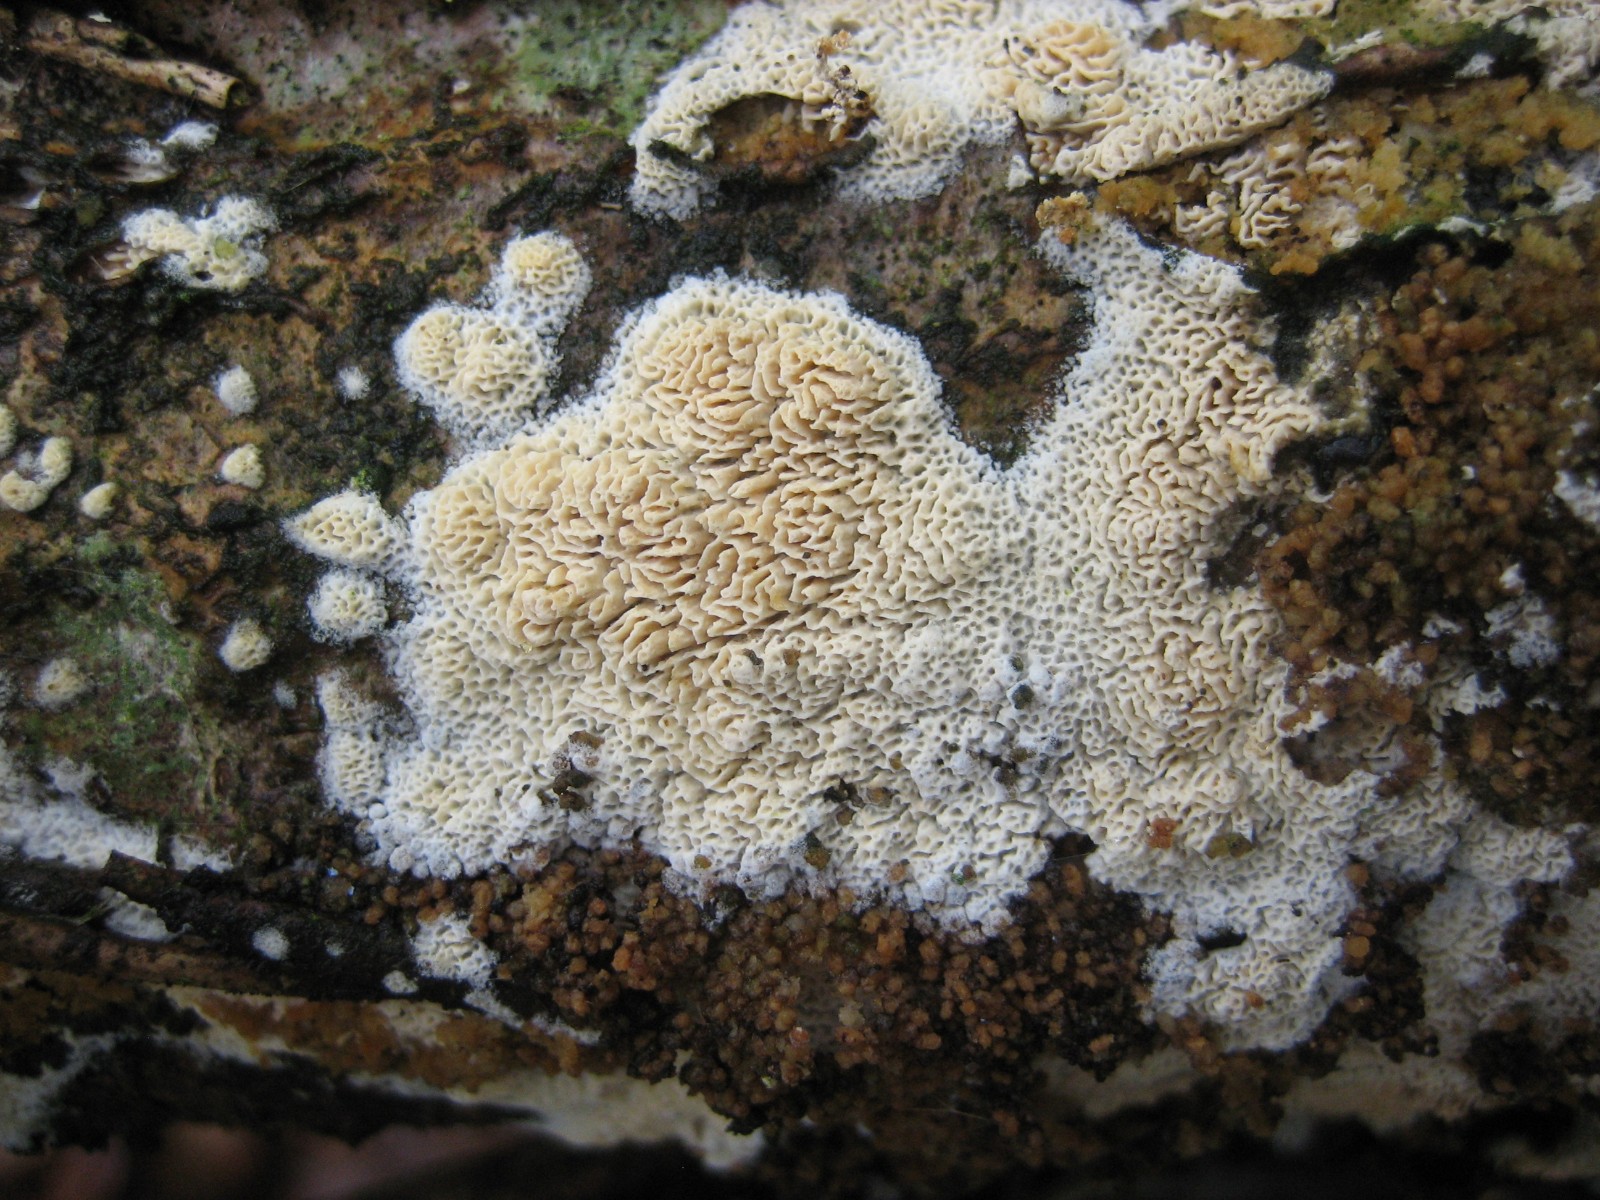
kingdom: Fungi
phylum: Basidiomycota
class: Agaricomycetes
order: Hymenochaetales
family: Schizoporaceae
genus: Xylodon
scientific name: Xylodon subtropicus
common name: labyrint-tandsvamp
